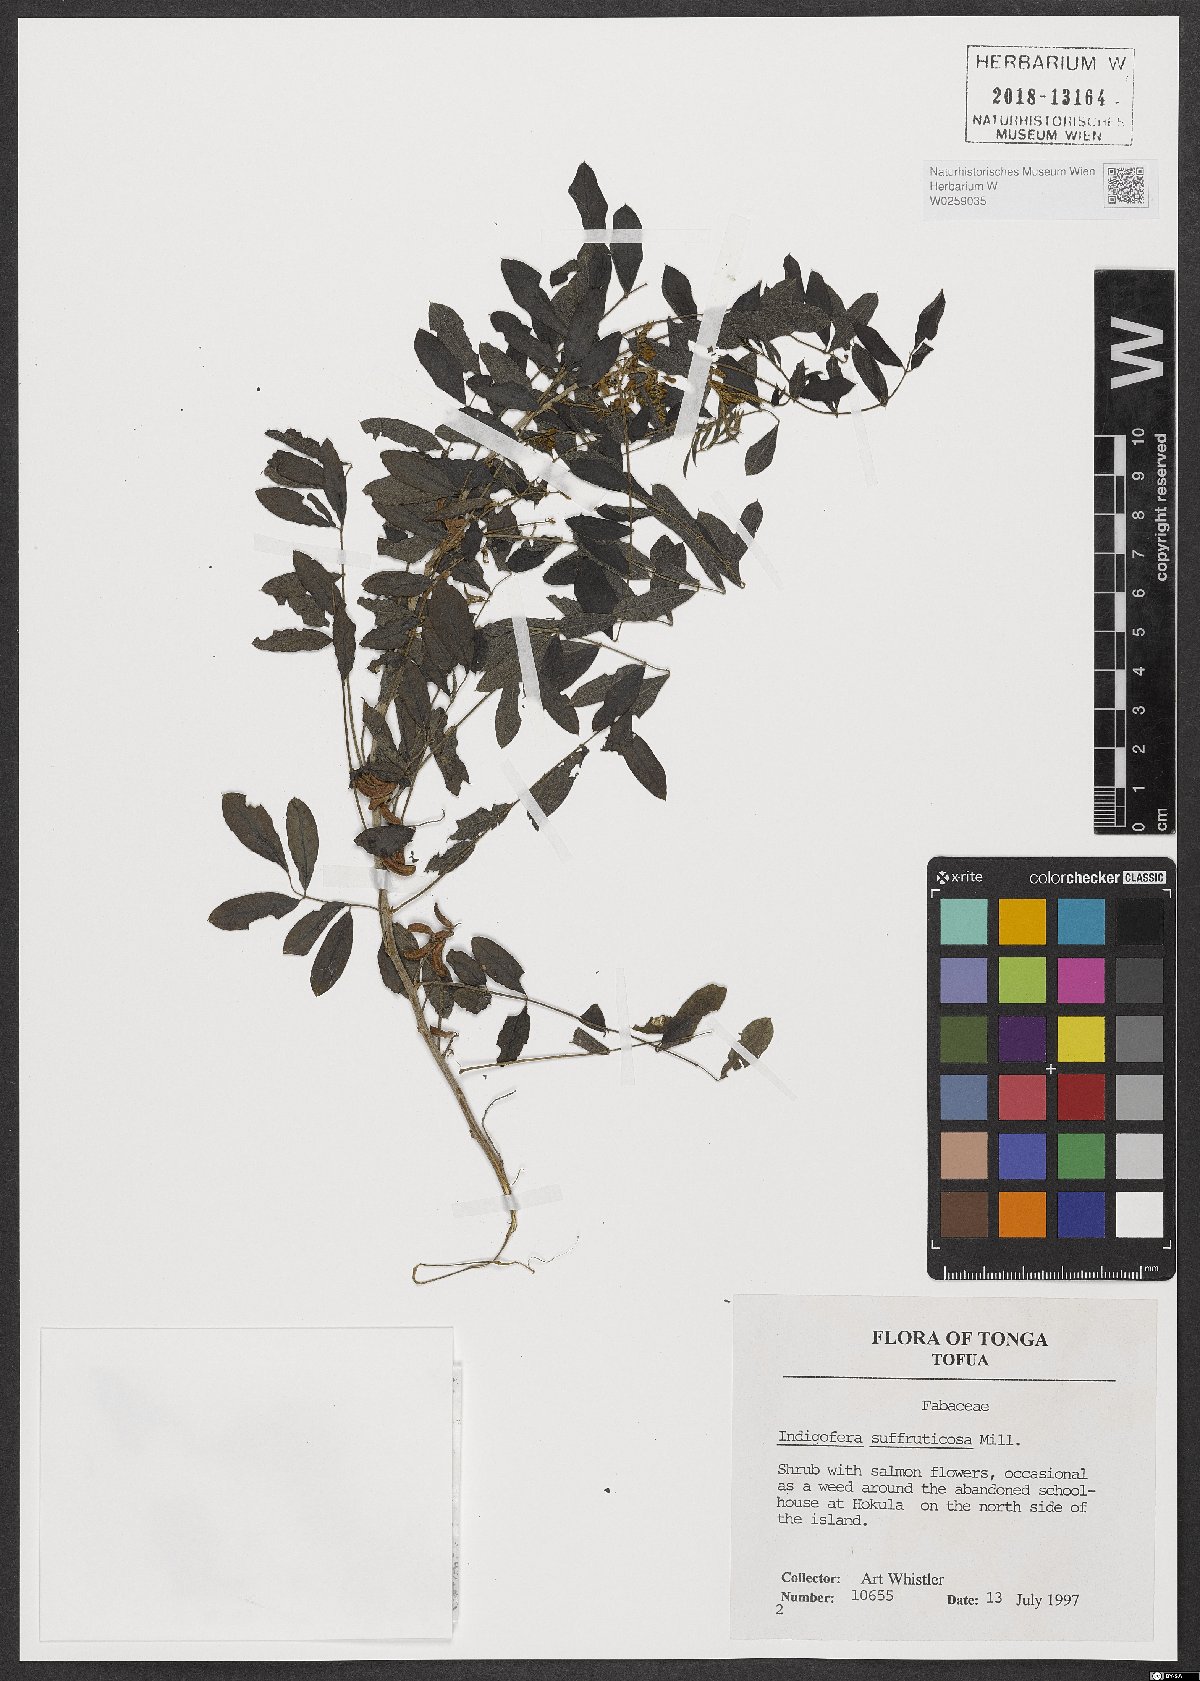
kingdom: Plantae
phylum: Tracheophyta
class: Magnoliopsida
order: Fabales
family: Fabaceae
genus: Indigofera
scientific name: Indigofera suffruticosa
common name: Anil de pasto
